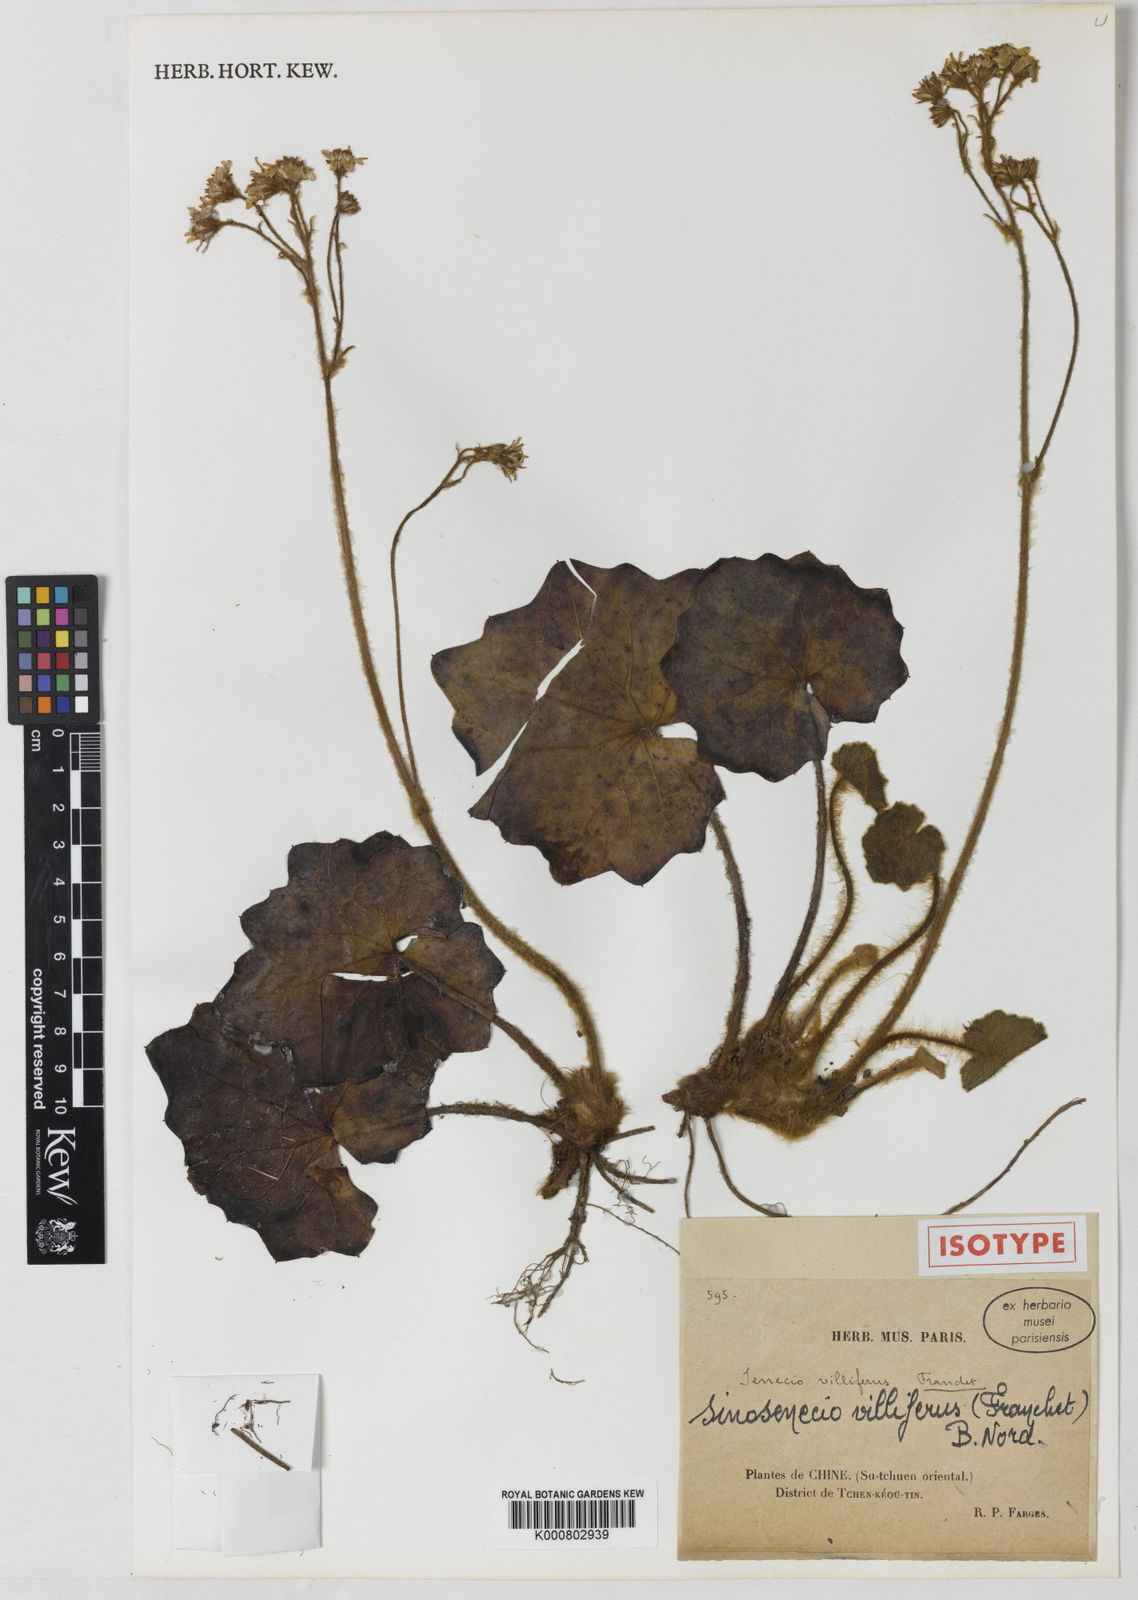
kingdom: Plantae
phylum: Tracheophyta
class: Magnoliopsida
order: Asterales
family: Asteraceae
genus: Sinosenecio
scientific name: Sinosenecio
